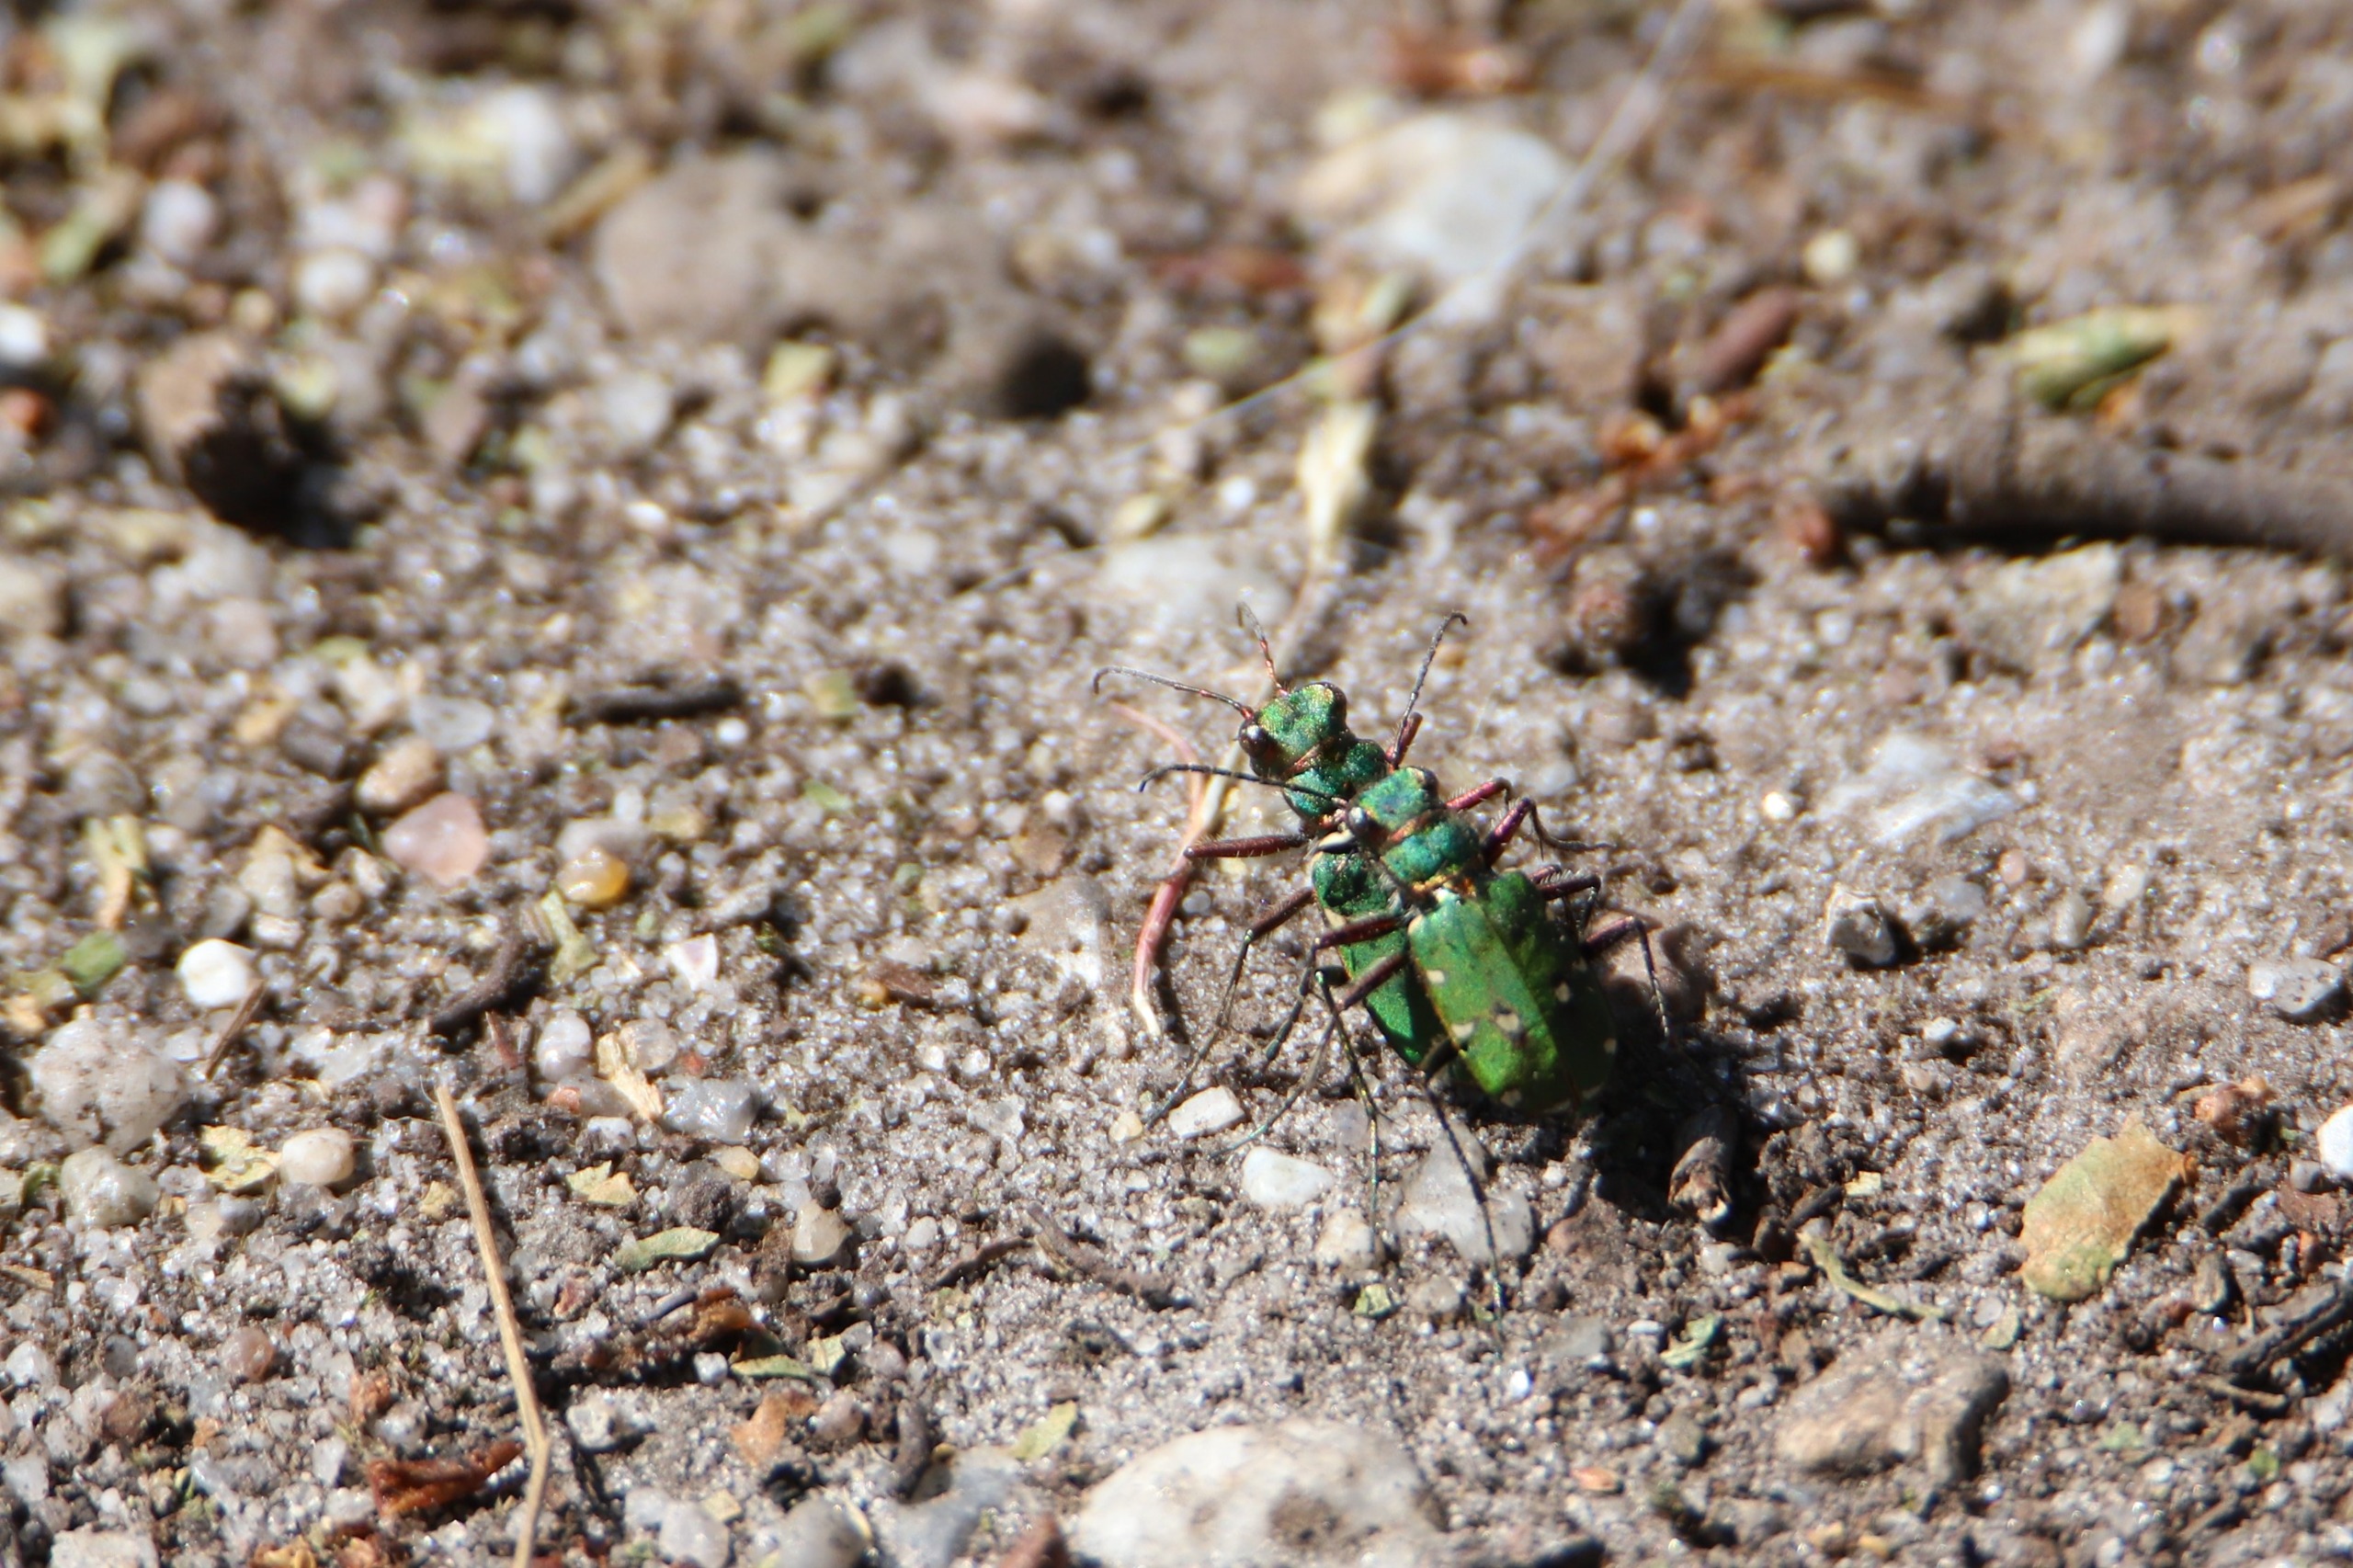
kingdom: Animalia
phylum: Arthropoda
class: Insecta
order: Coleoptera
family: Carabidae
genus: Cicindela
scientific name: Cicindela campestris
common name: Grøn sandspringer
